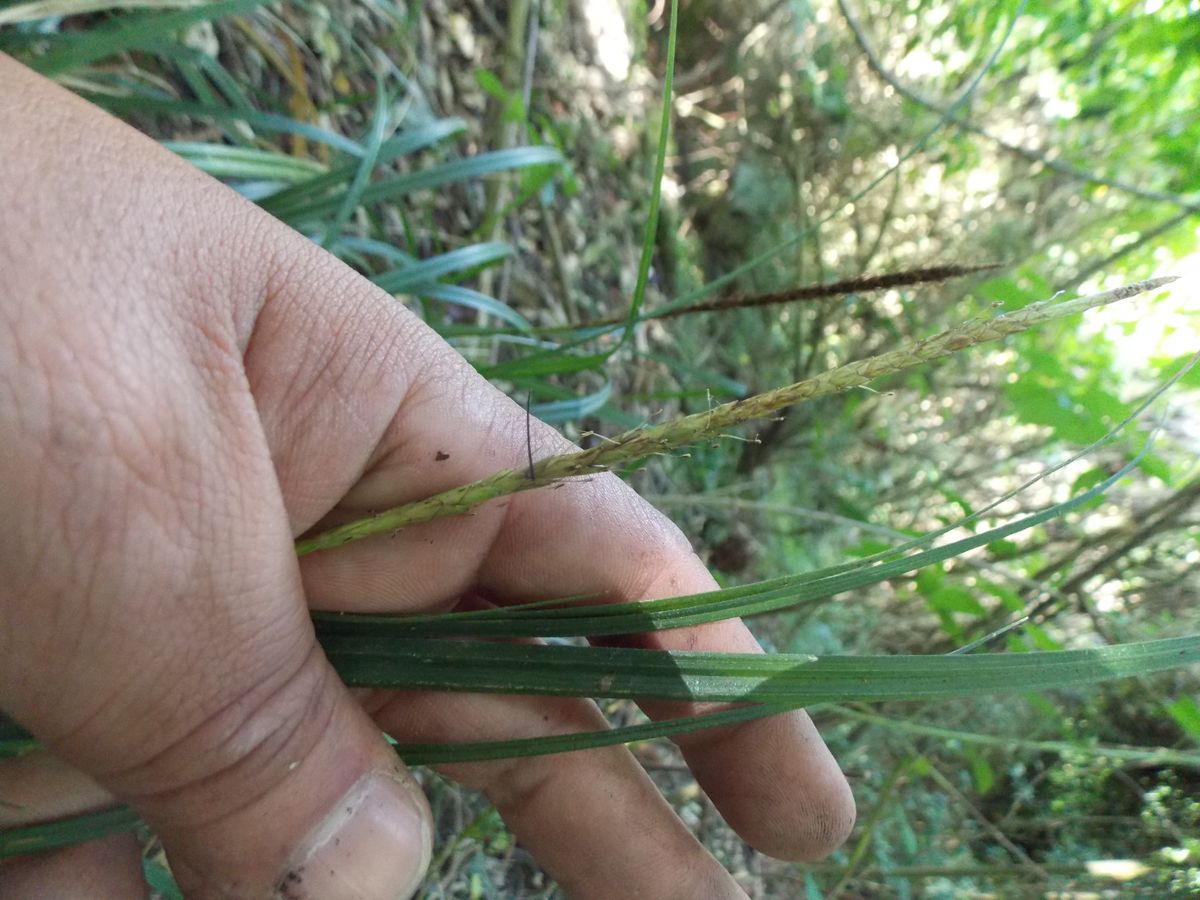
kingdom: Plantae
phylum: Tracheophyta
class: Liliopsida
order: Poales
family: Cyperaceae
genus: Carex
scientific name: Carex hamata
